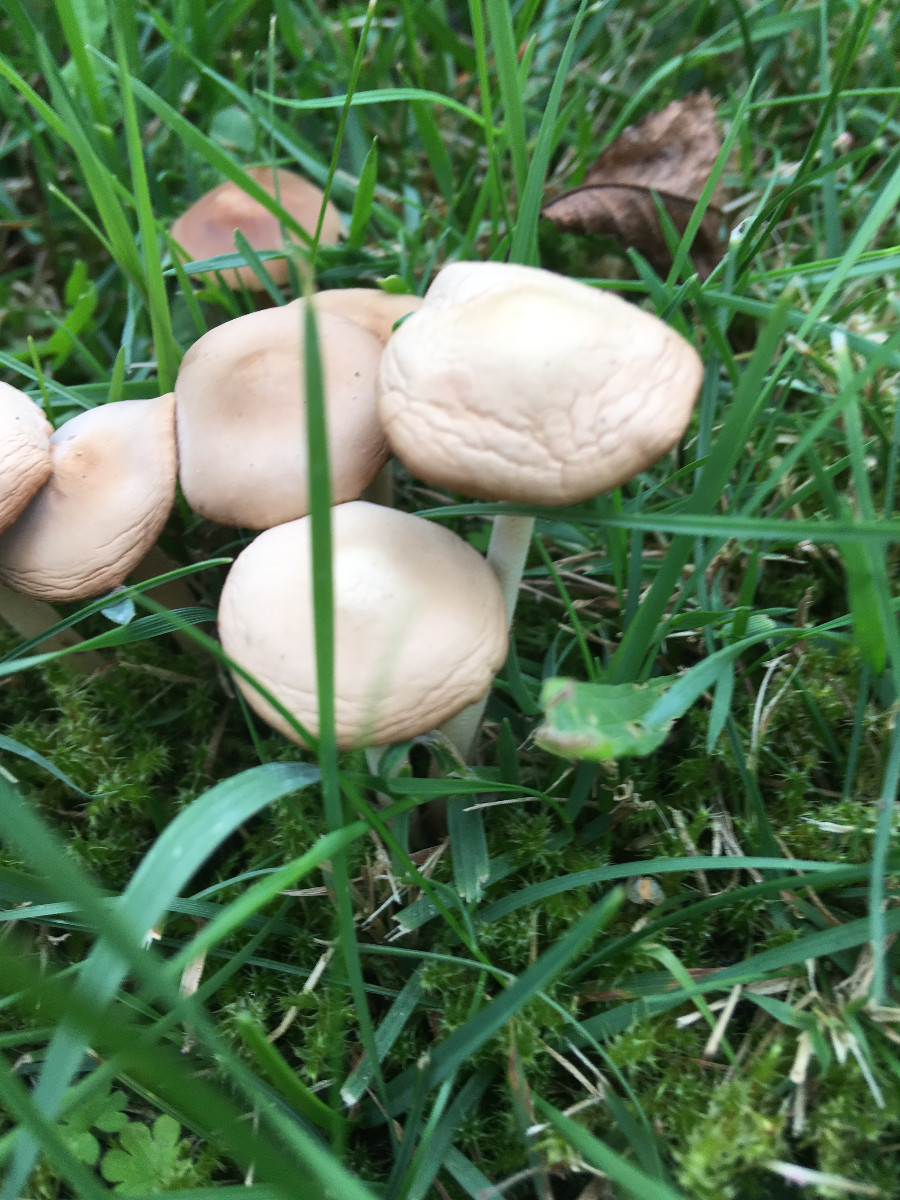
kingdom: Fungi
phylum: Basidiomycota
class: Agaricomycetes
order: Agaricales
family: Marasmiaceae
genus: Marasmius
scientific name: Marasmius oreades
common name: elledans-bruskhat
